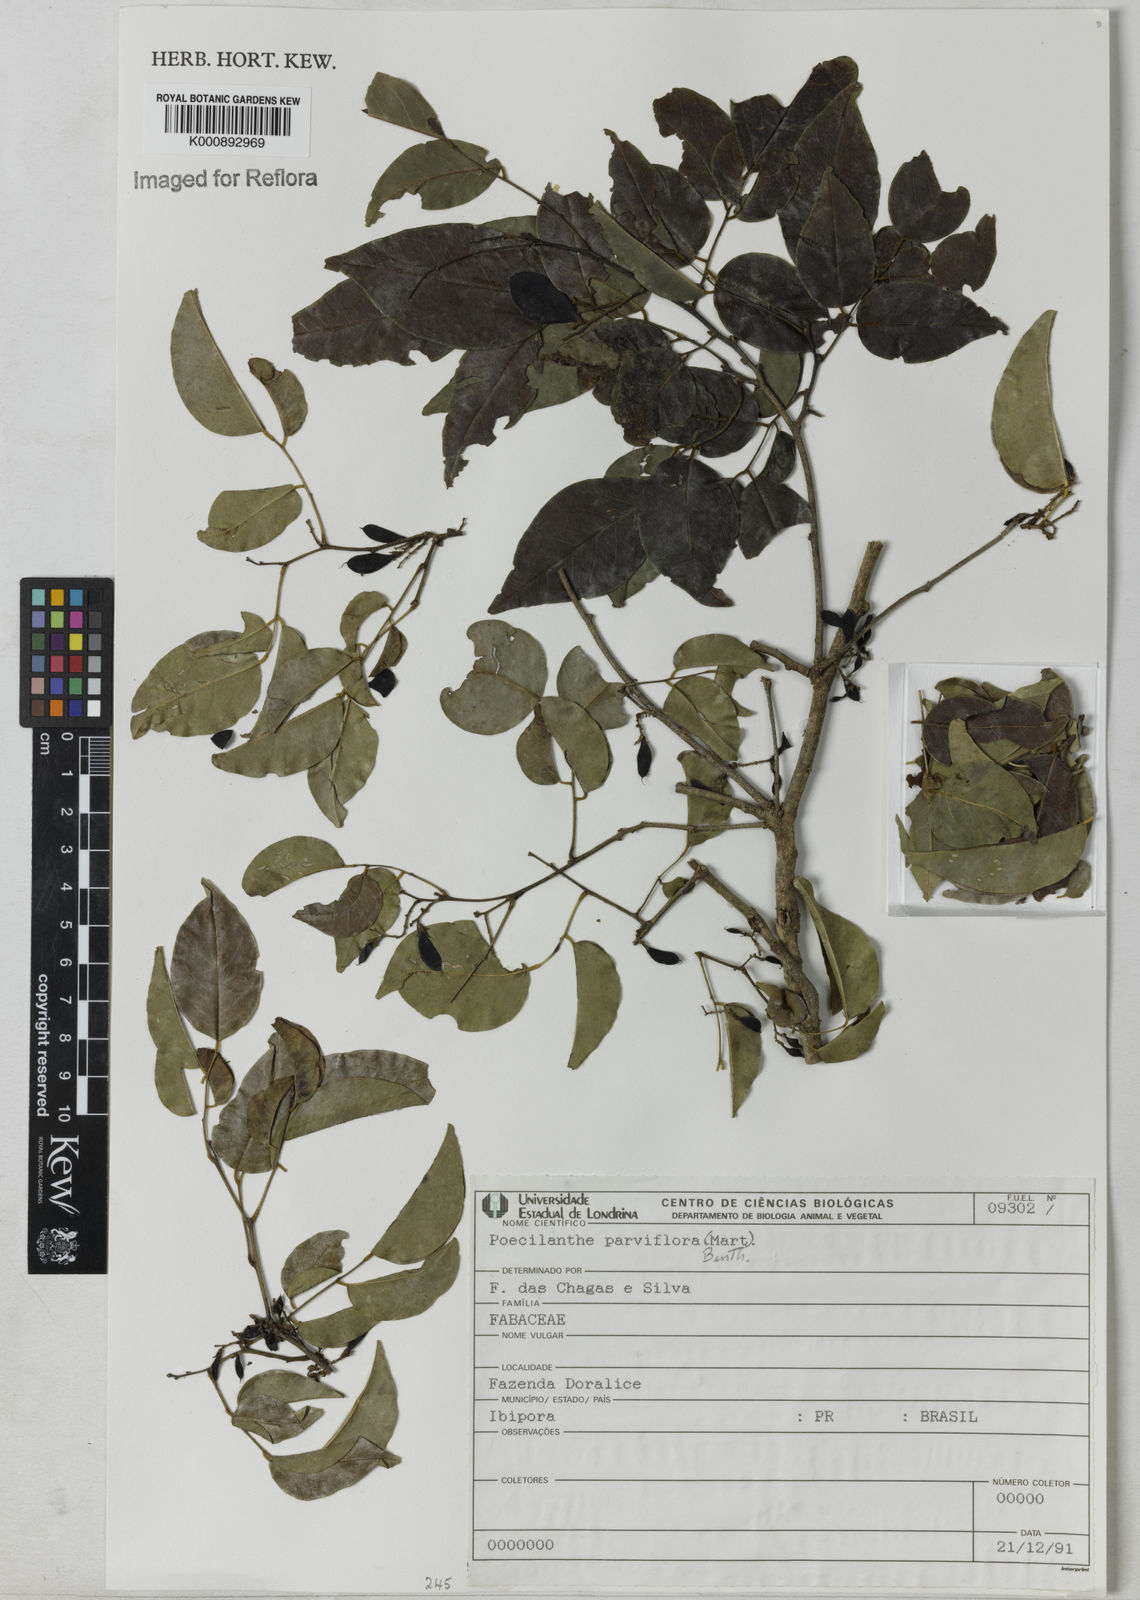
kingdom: Plantae
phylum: Tracheophyta
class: Magnoliopsida
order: Fabales
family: Fabaceae
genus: Poecilanthe
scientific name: Poecilanthe parviflora
